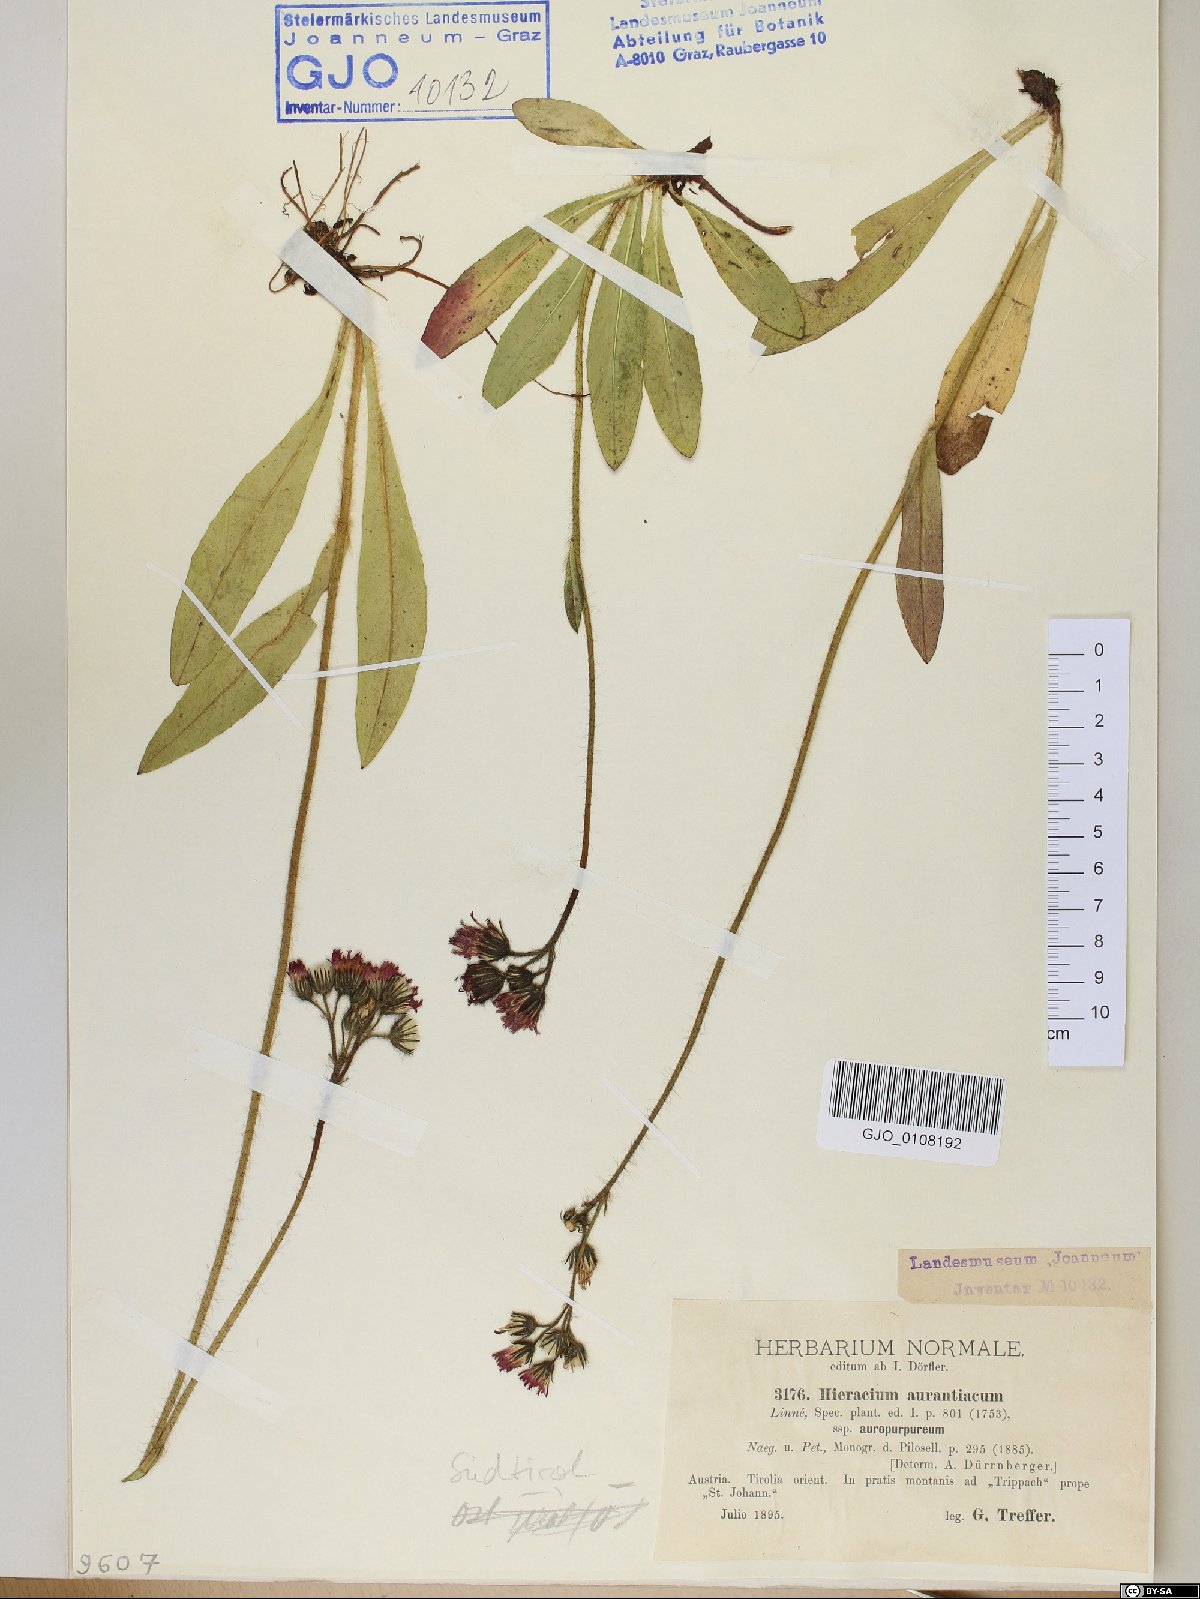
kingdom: Plantae
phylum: Tracheophyta
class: Magnoliopsida
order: Asterales
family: Asteraceae
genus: Pilosella
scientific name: Pilosella aurantiaca
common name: Fox-and-cubs
